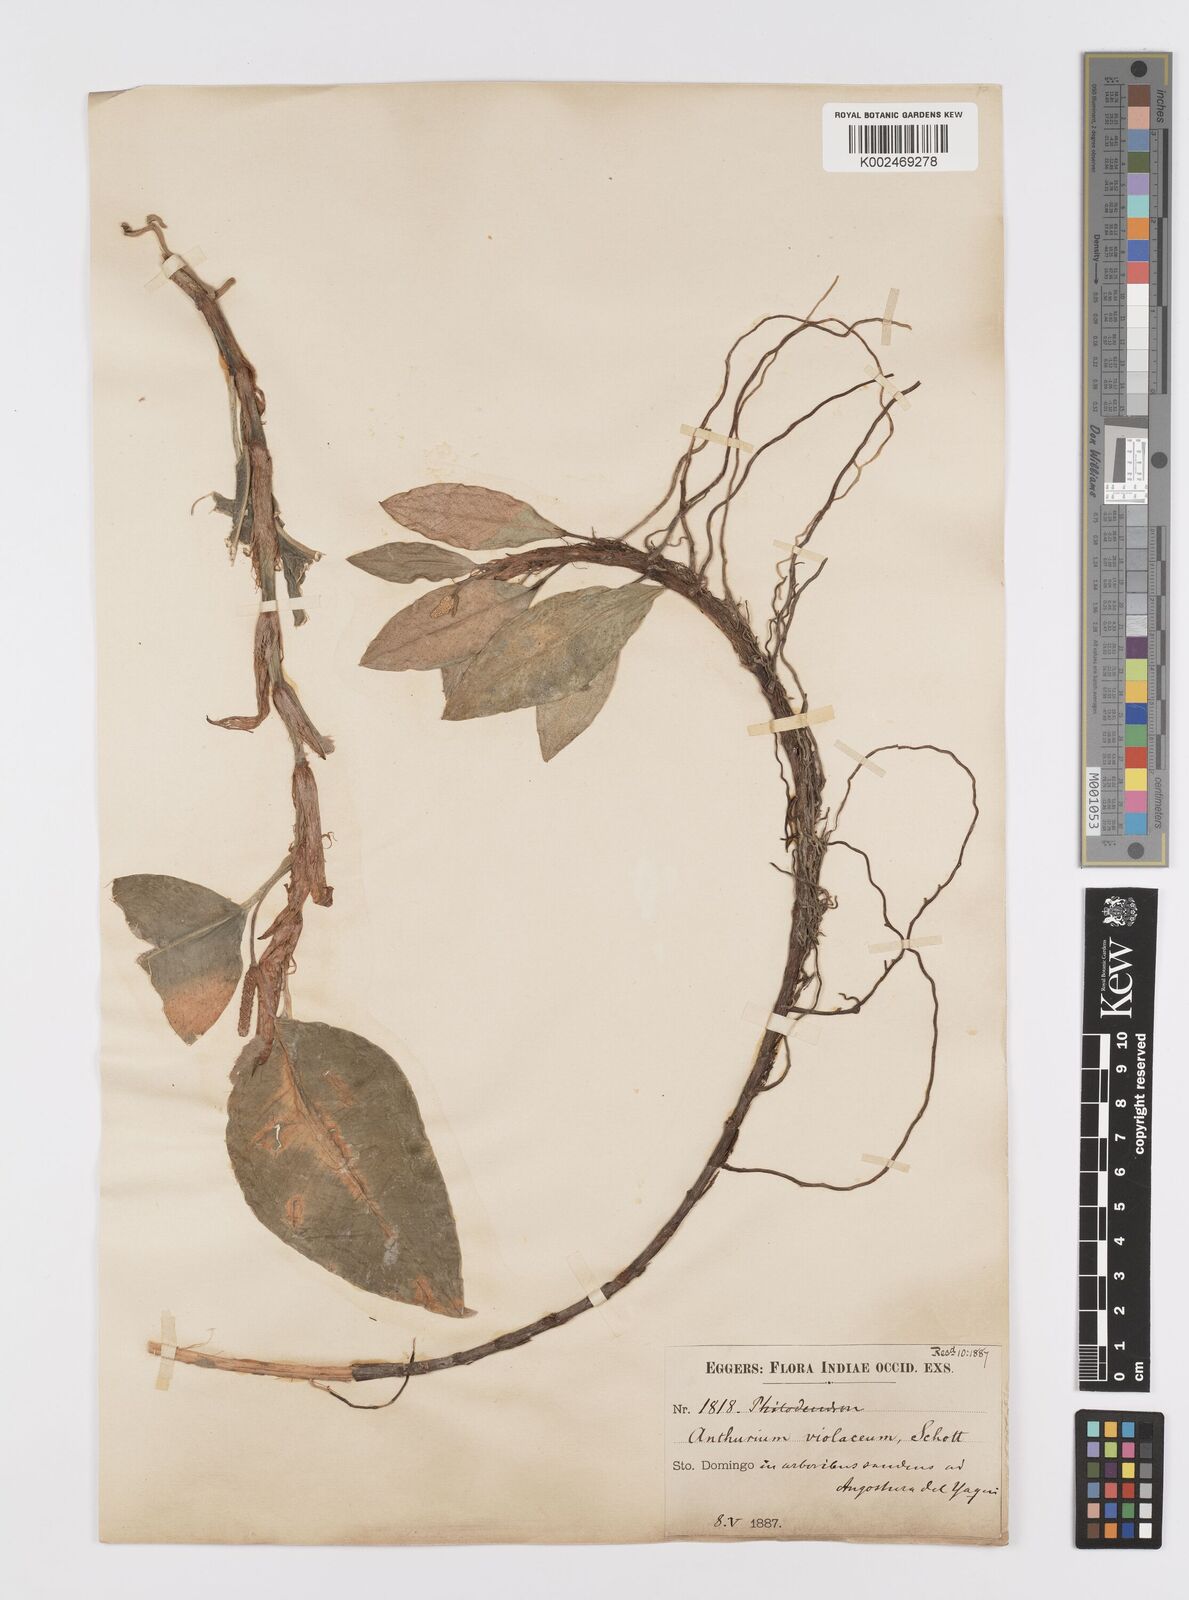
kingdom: Plantae
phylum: Tracheophyta
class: Liliopsida
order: Alismatales
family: Araceae
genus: Anthurium
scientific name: Anthurium scandens
